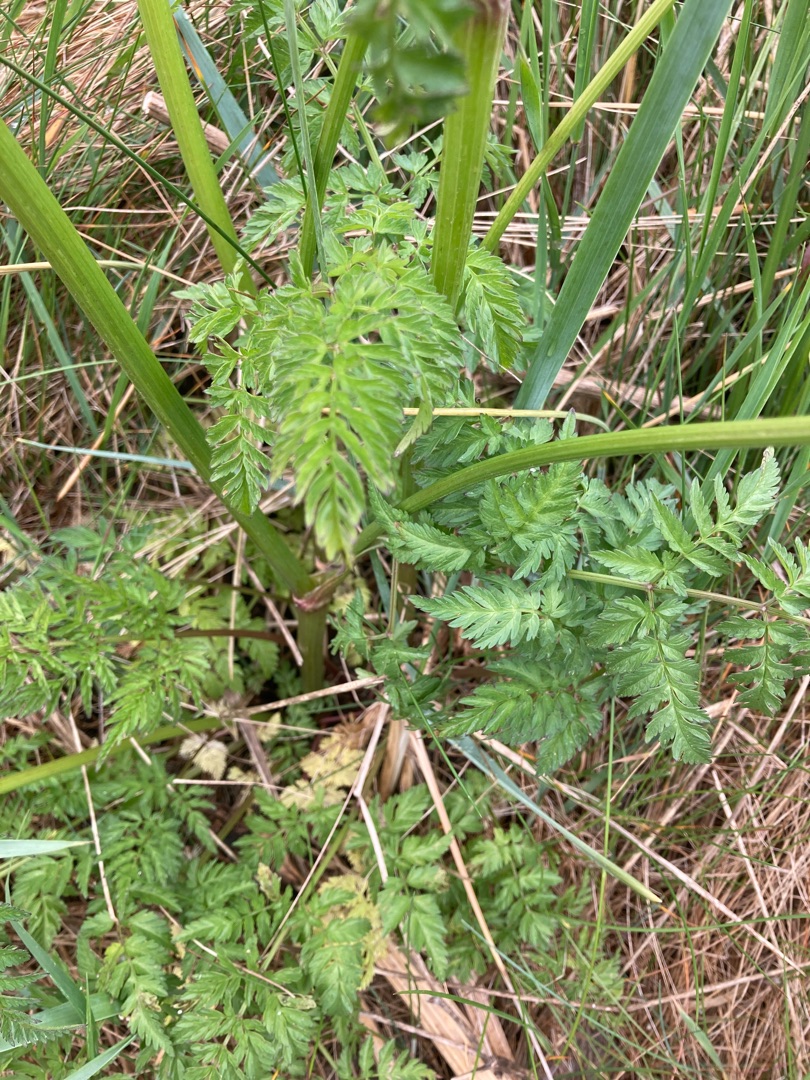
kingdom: Plantae
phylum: Tracheophyta
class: Magnoliopsida
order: Apiales
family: Apiaceae
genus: Anthriscus
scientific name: Anthriscus sylvestris
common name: Vild kørvel
